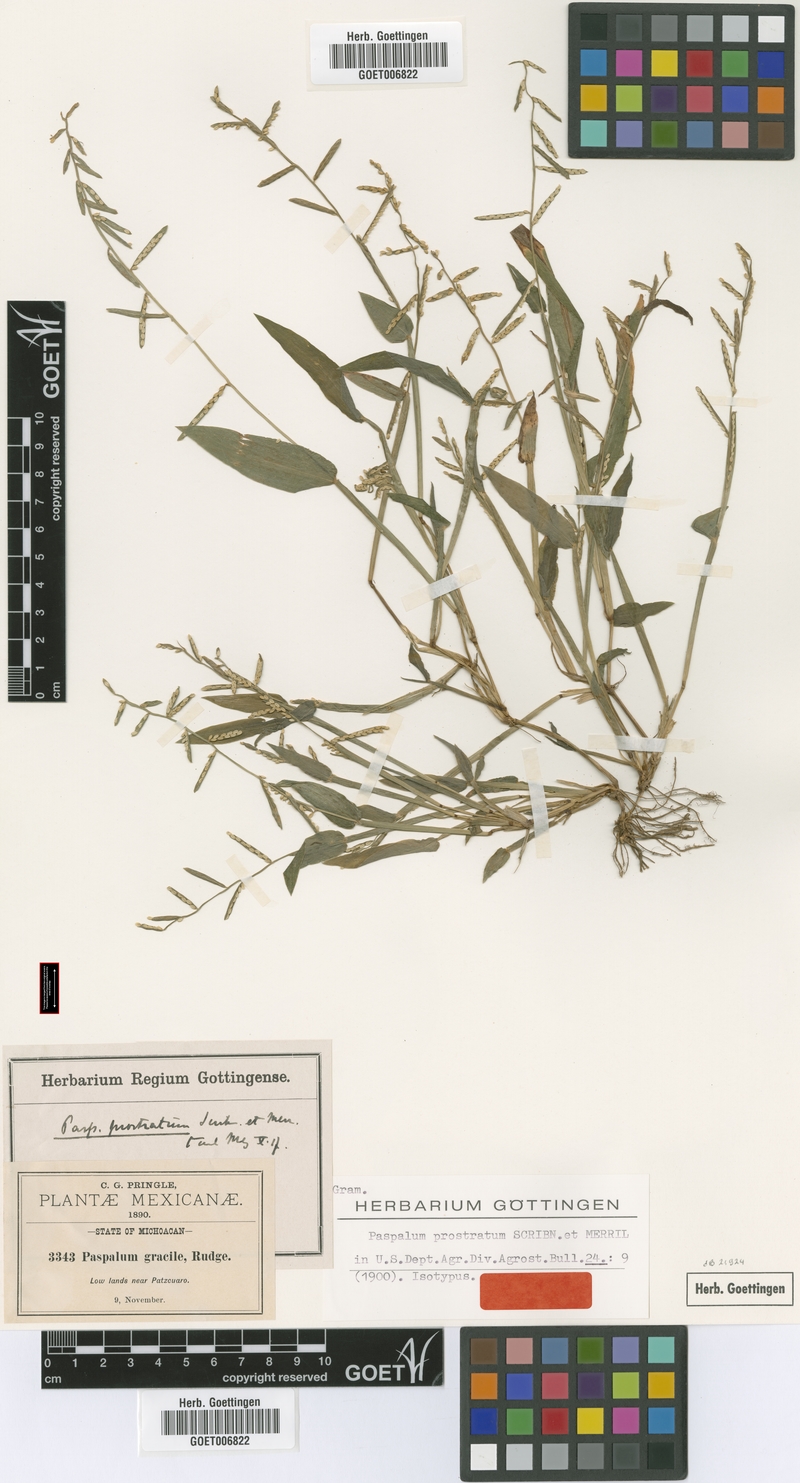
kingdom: Plantae
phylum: Tracheophyta
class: Liliopsida
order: Poales
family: Poaceae
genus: Paspalum
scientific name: Paspalum prostratum
